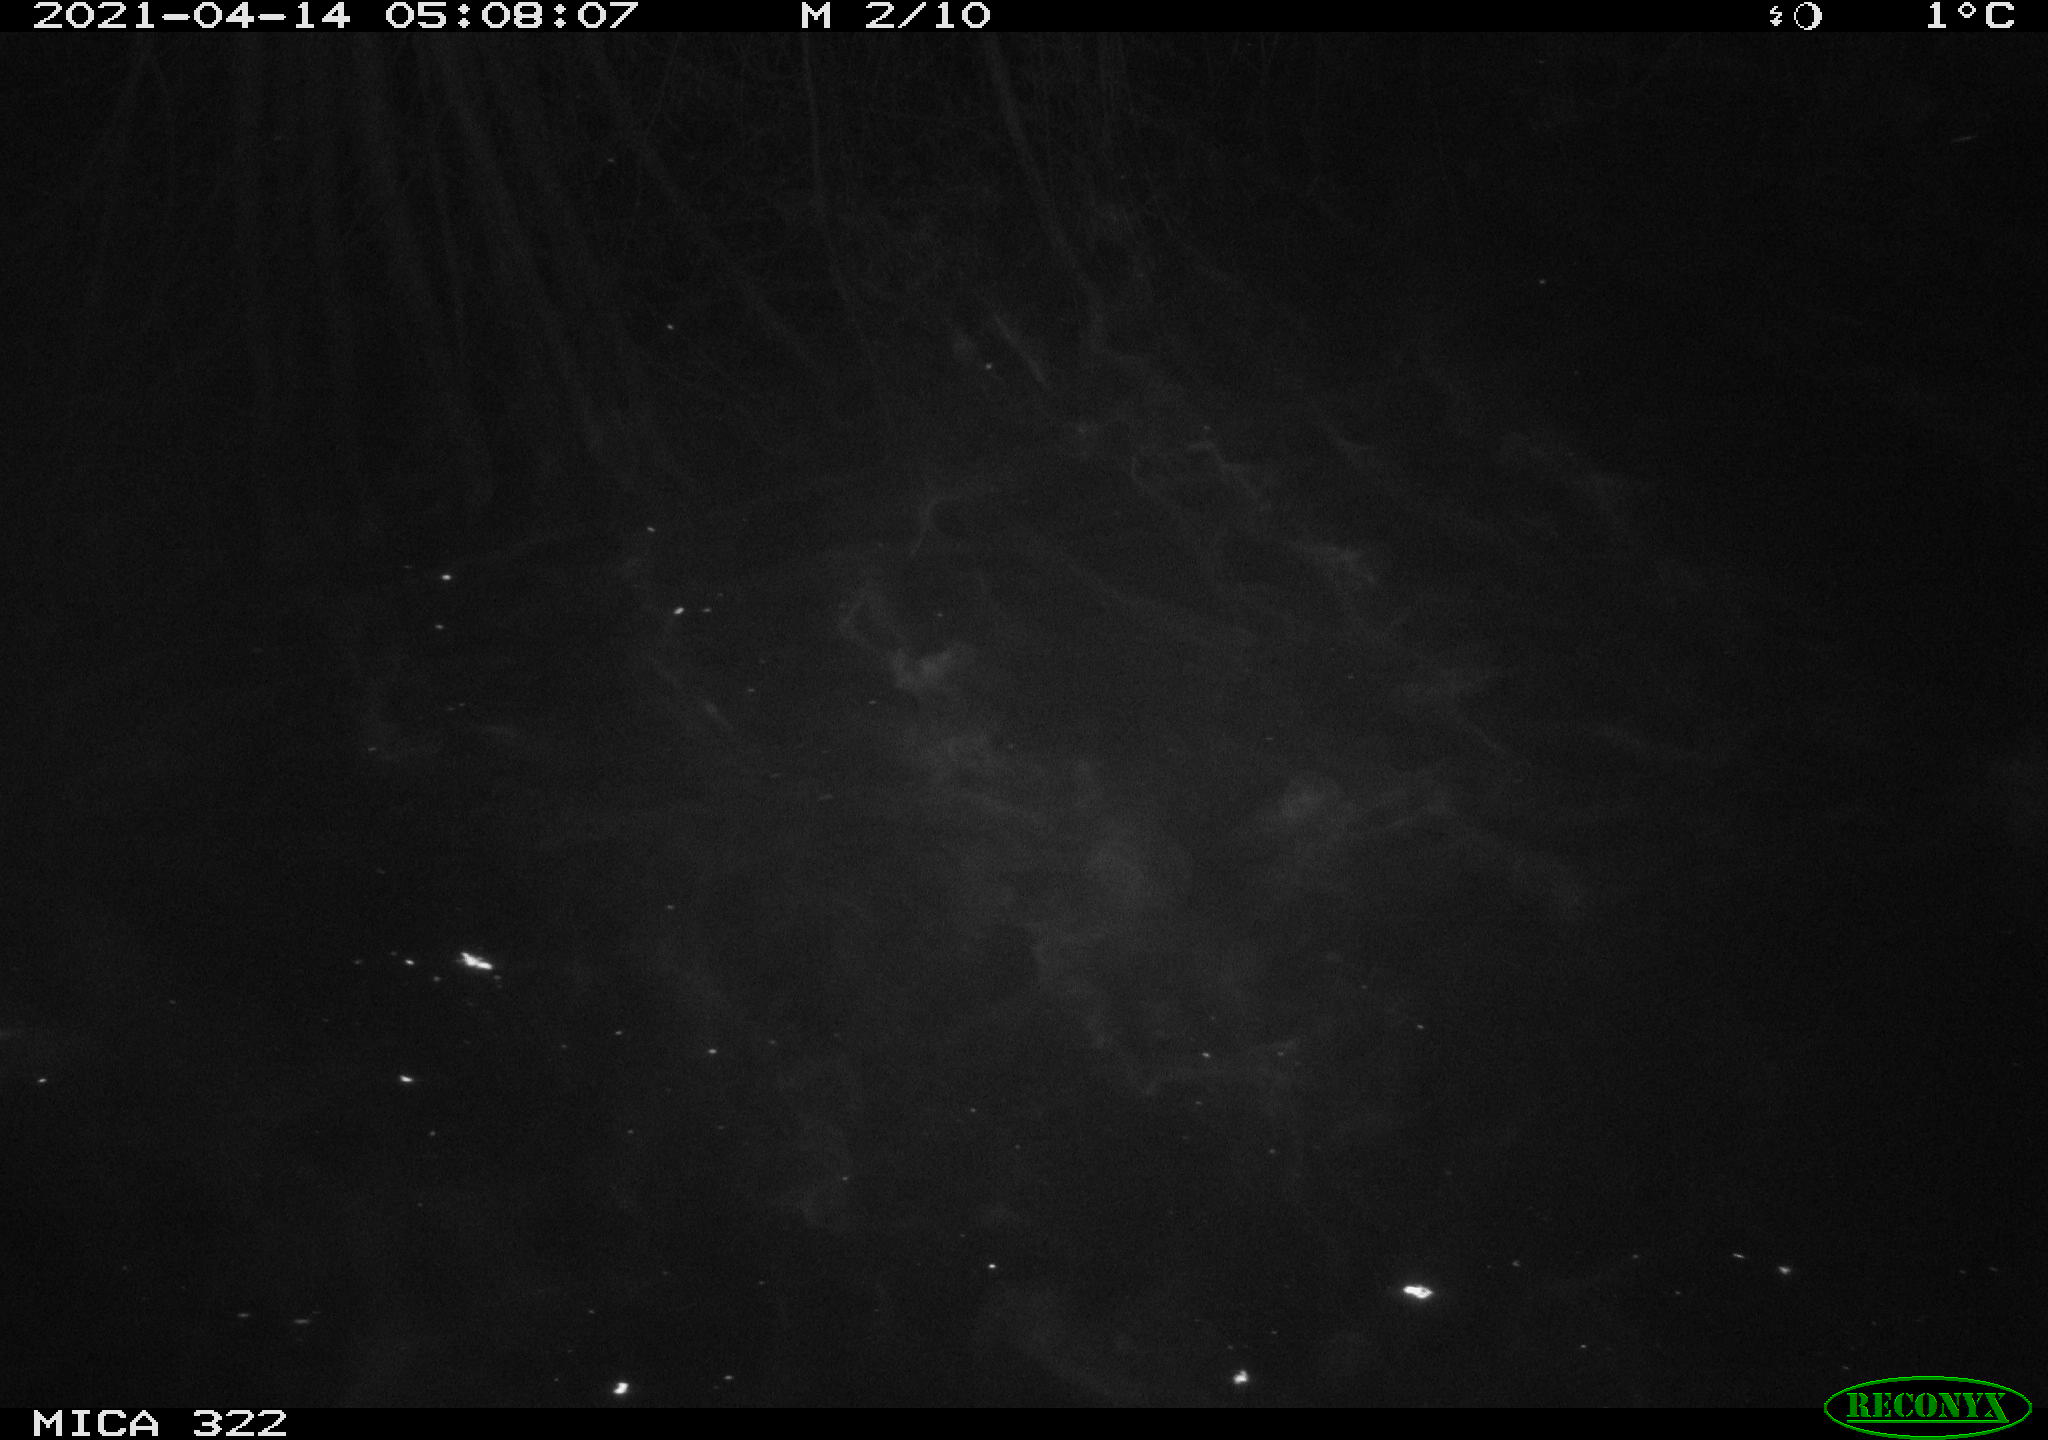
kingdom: Animalia
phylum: Chordata
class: Aves
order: Anseriformes
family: Anatidae
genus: Anas
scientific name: Anas platyrhynchos
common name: Mallard
